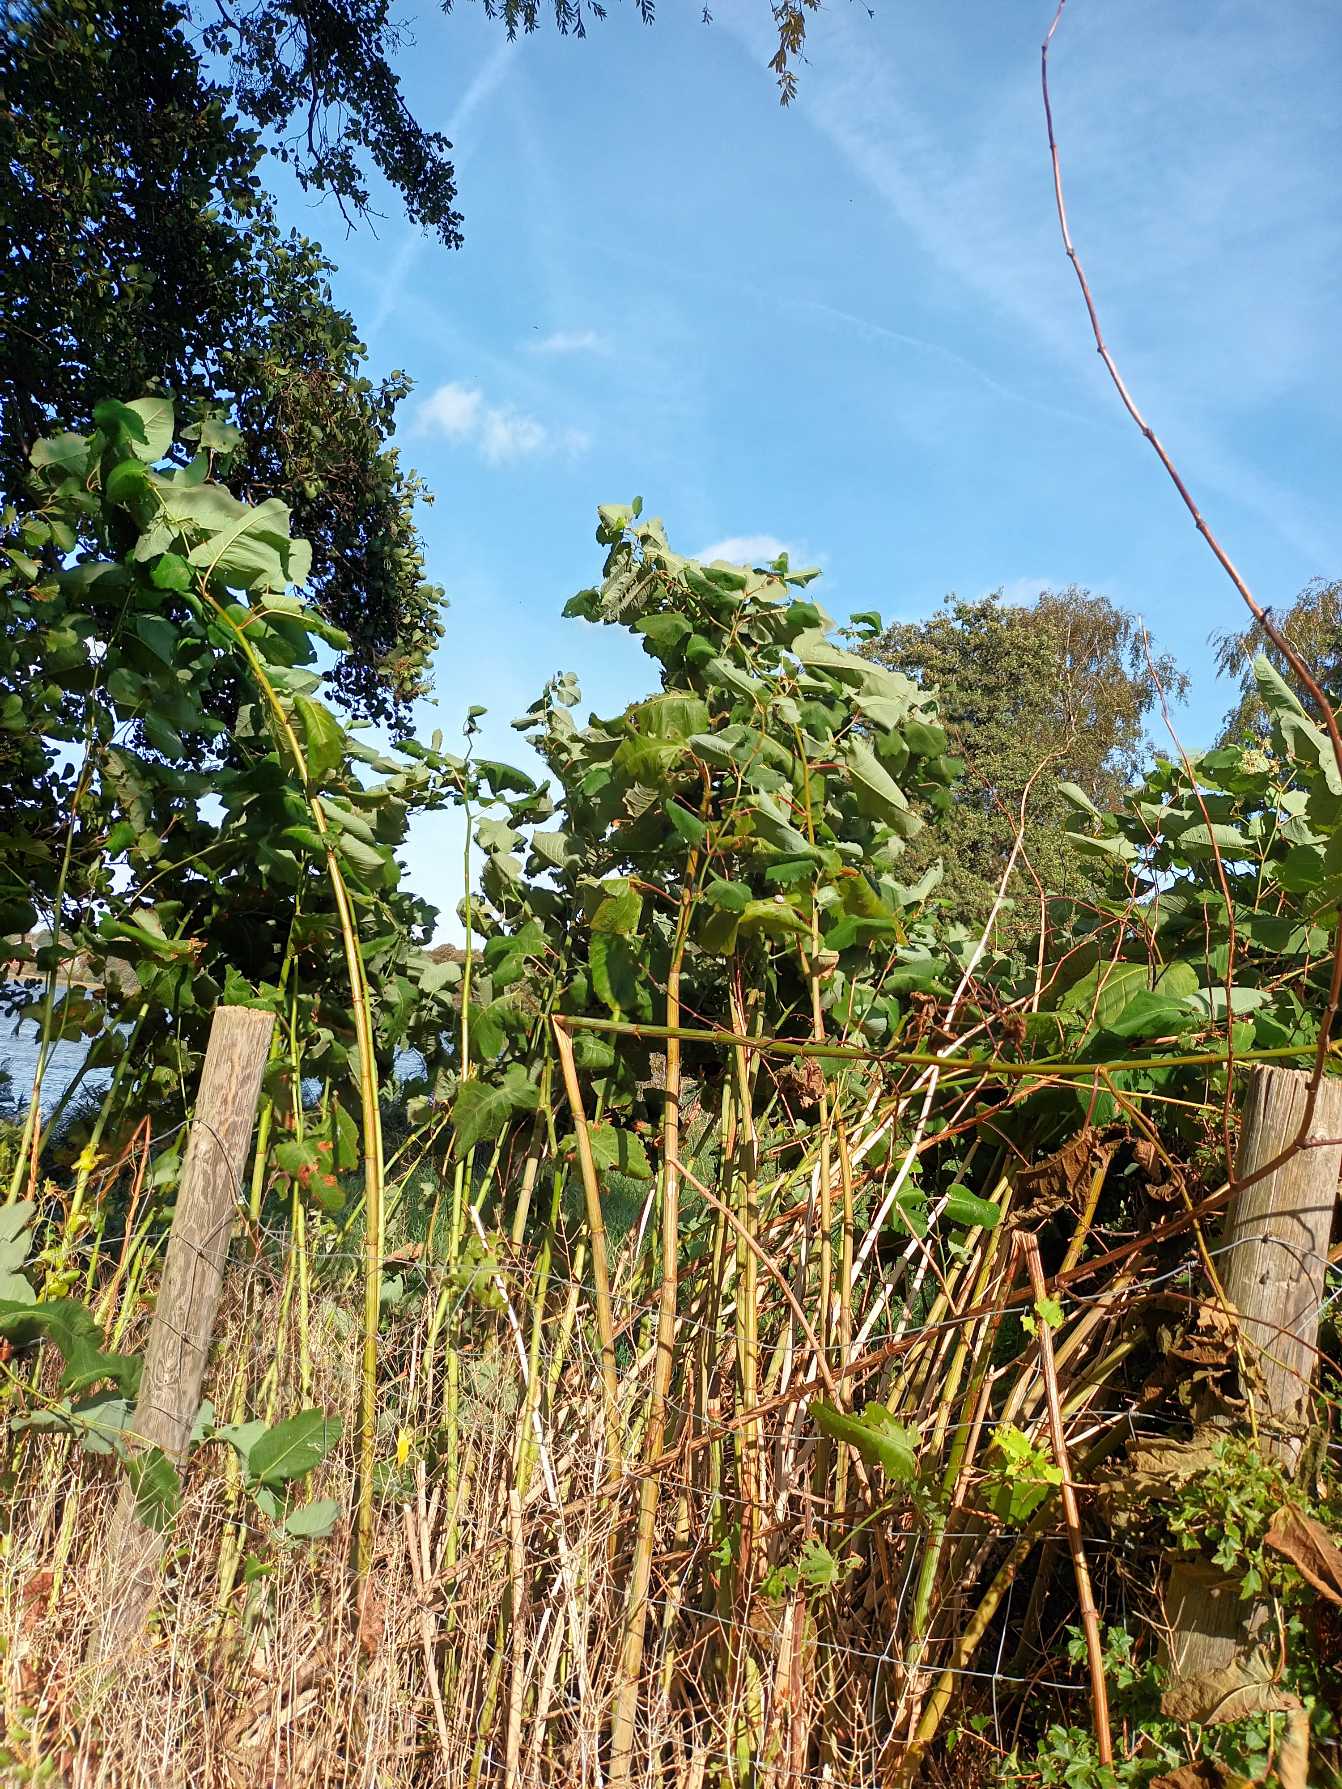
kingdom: Plantae
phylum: Tracheophyta
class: Magnoliopsida
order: Caryophyllales
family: Polygonaceae
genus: Reynoutria
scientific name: Reynoutria sachalinensis
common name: Kæmpe-pileurt
